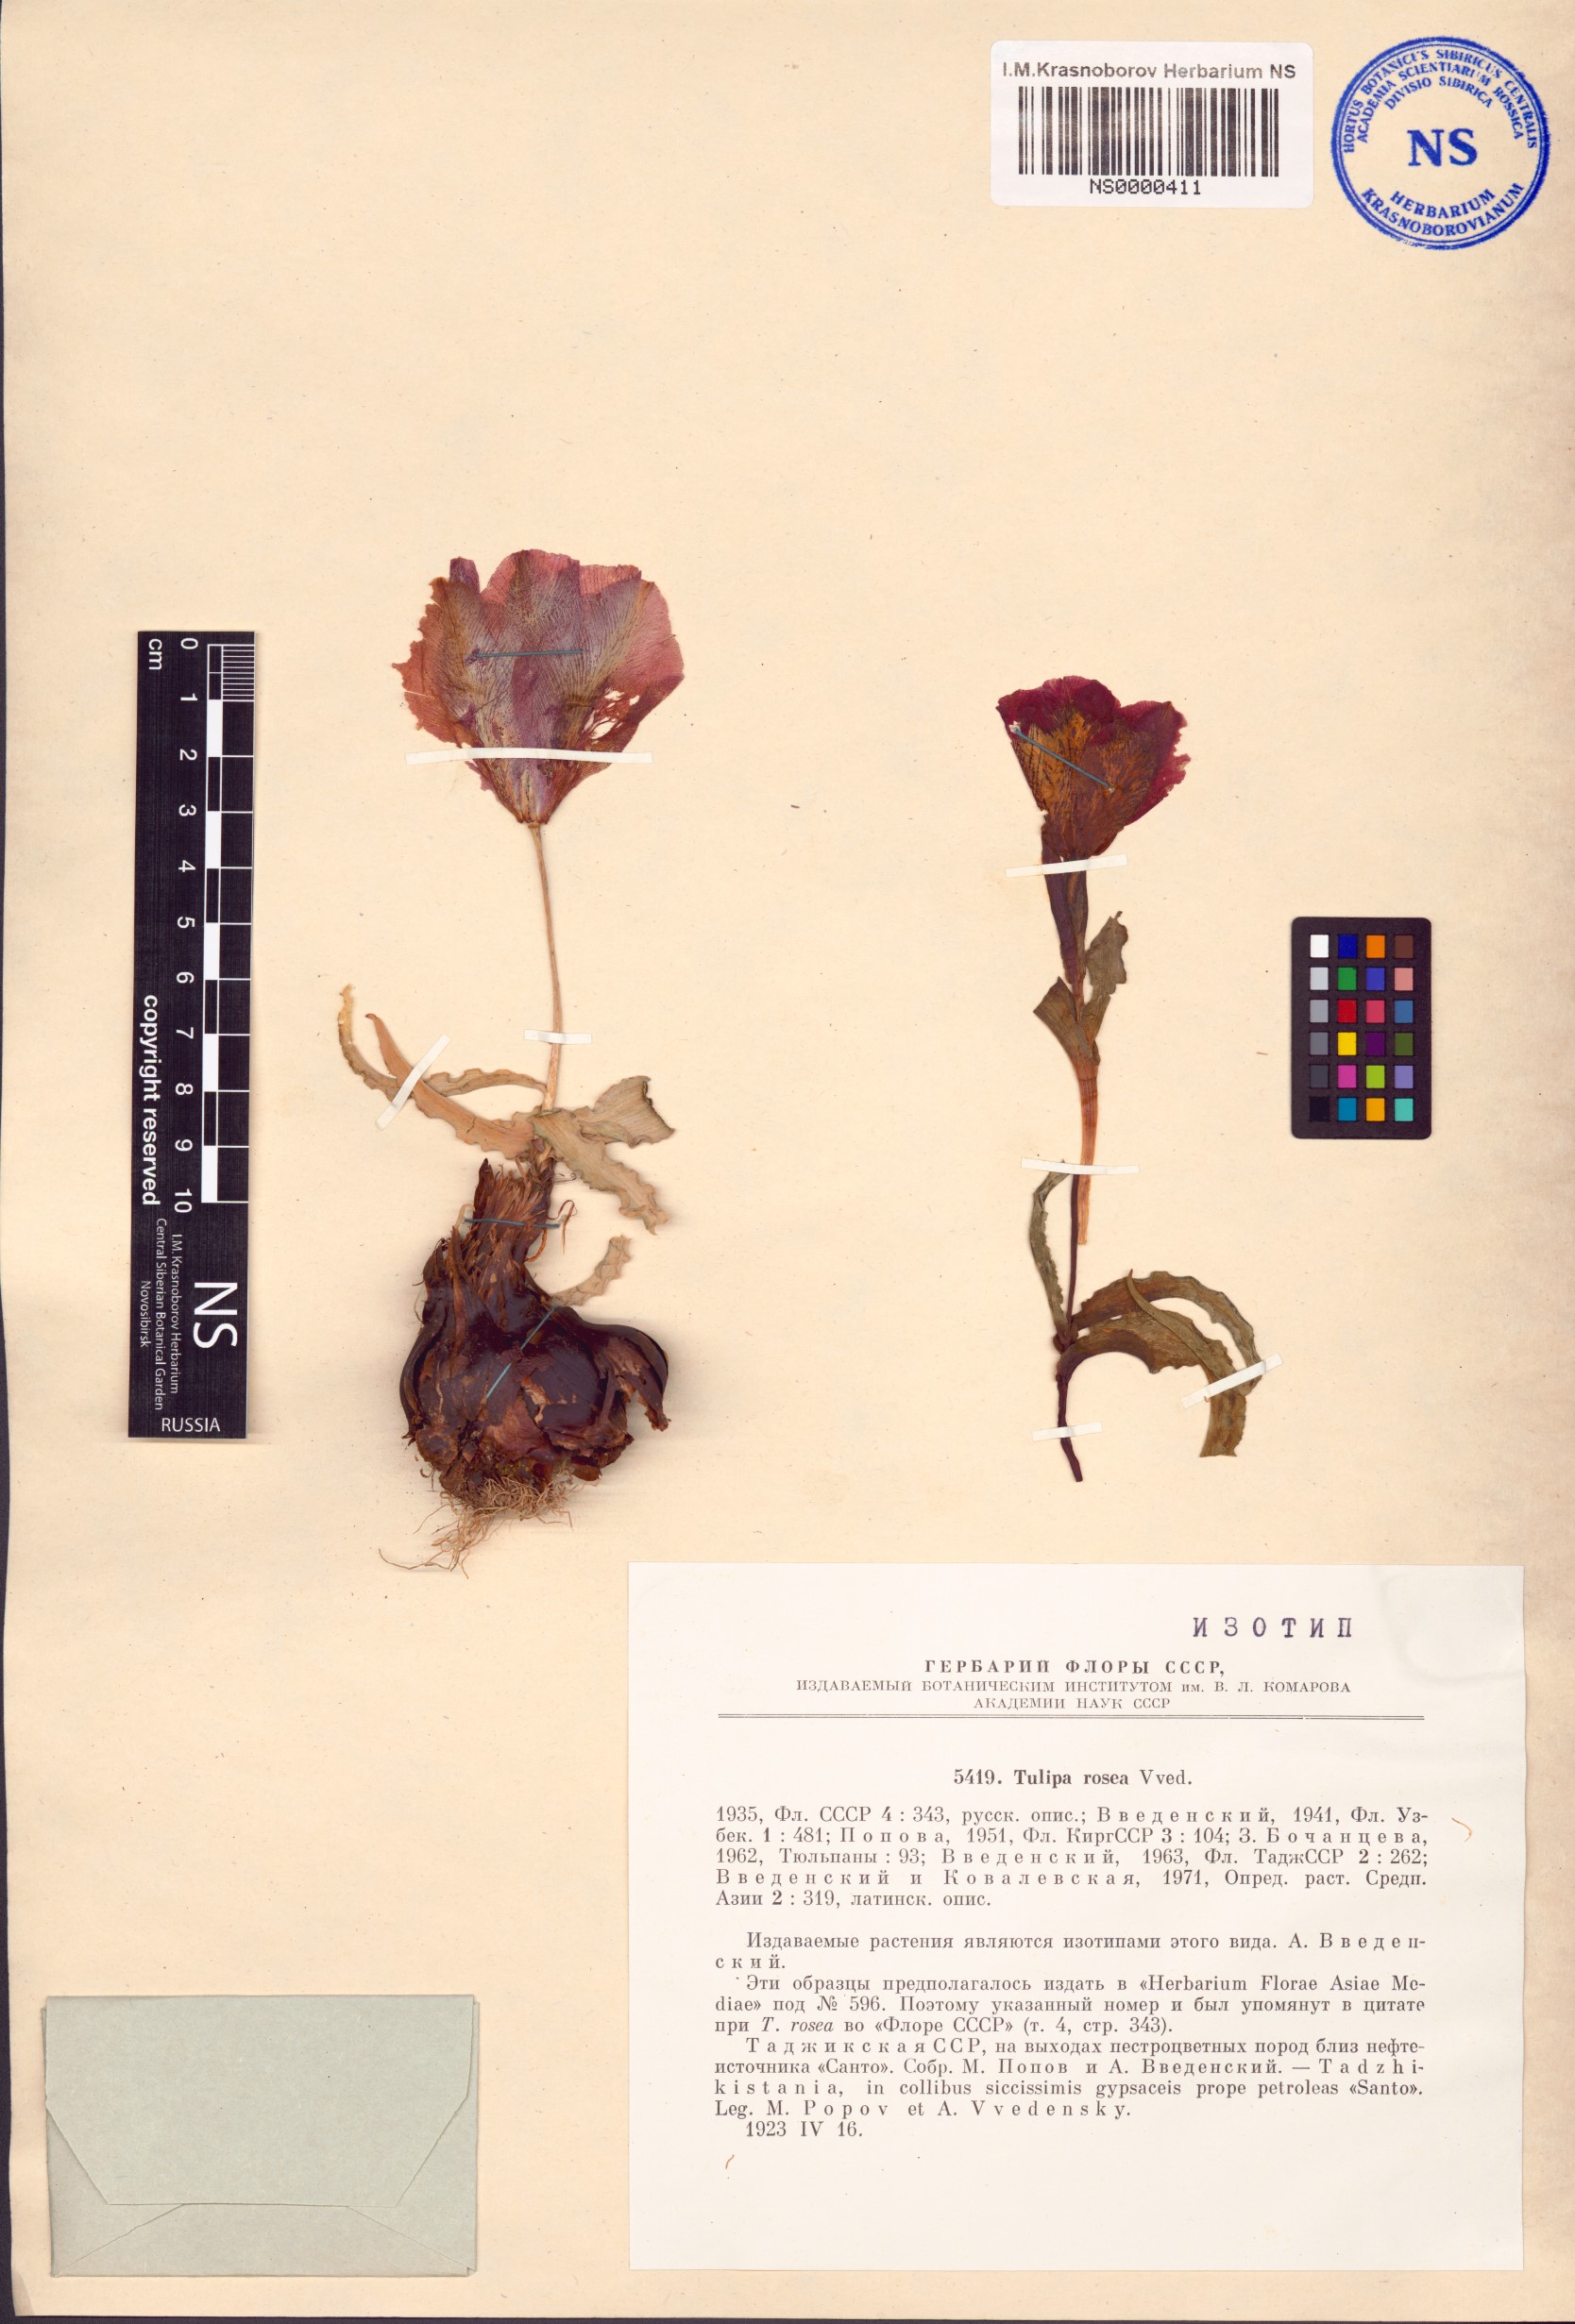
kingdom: Plantae
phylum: Tracheophyta
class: Liliopsida
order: Liliales
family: Liliaceae
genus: Tulipa
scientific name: Tulipa korolkowii
